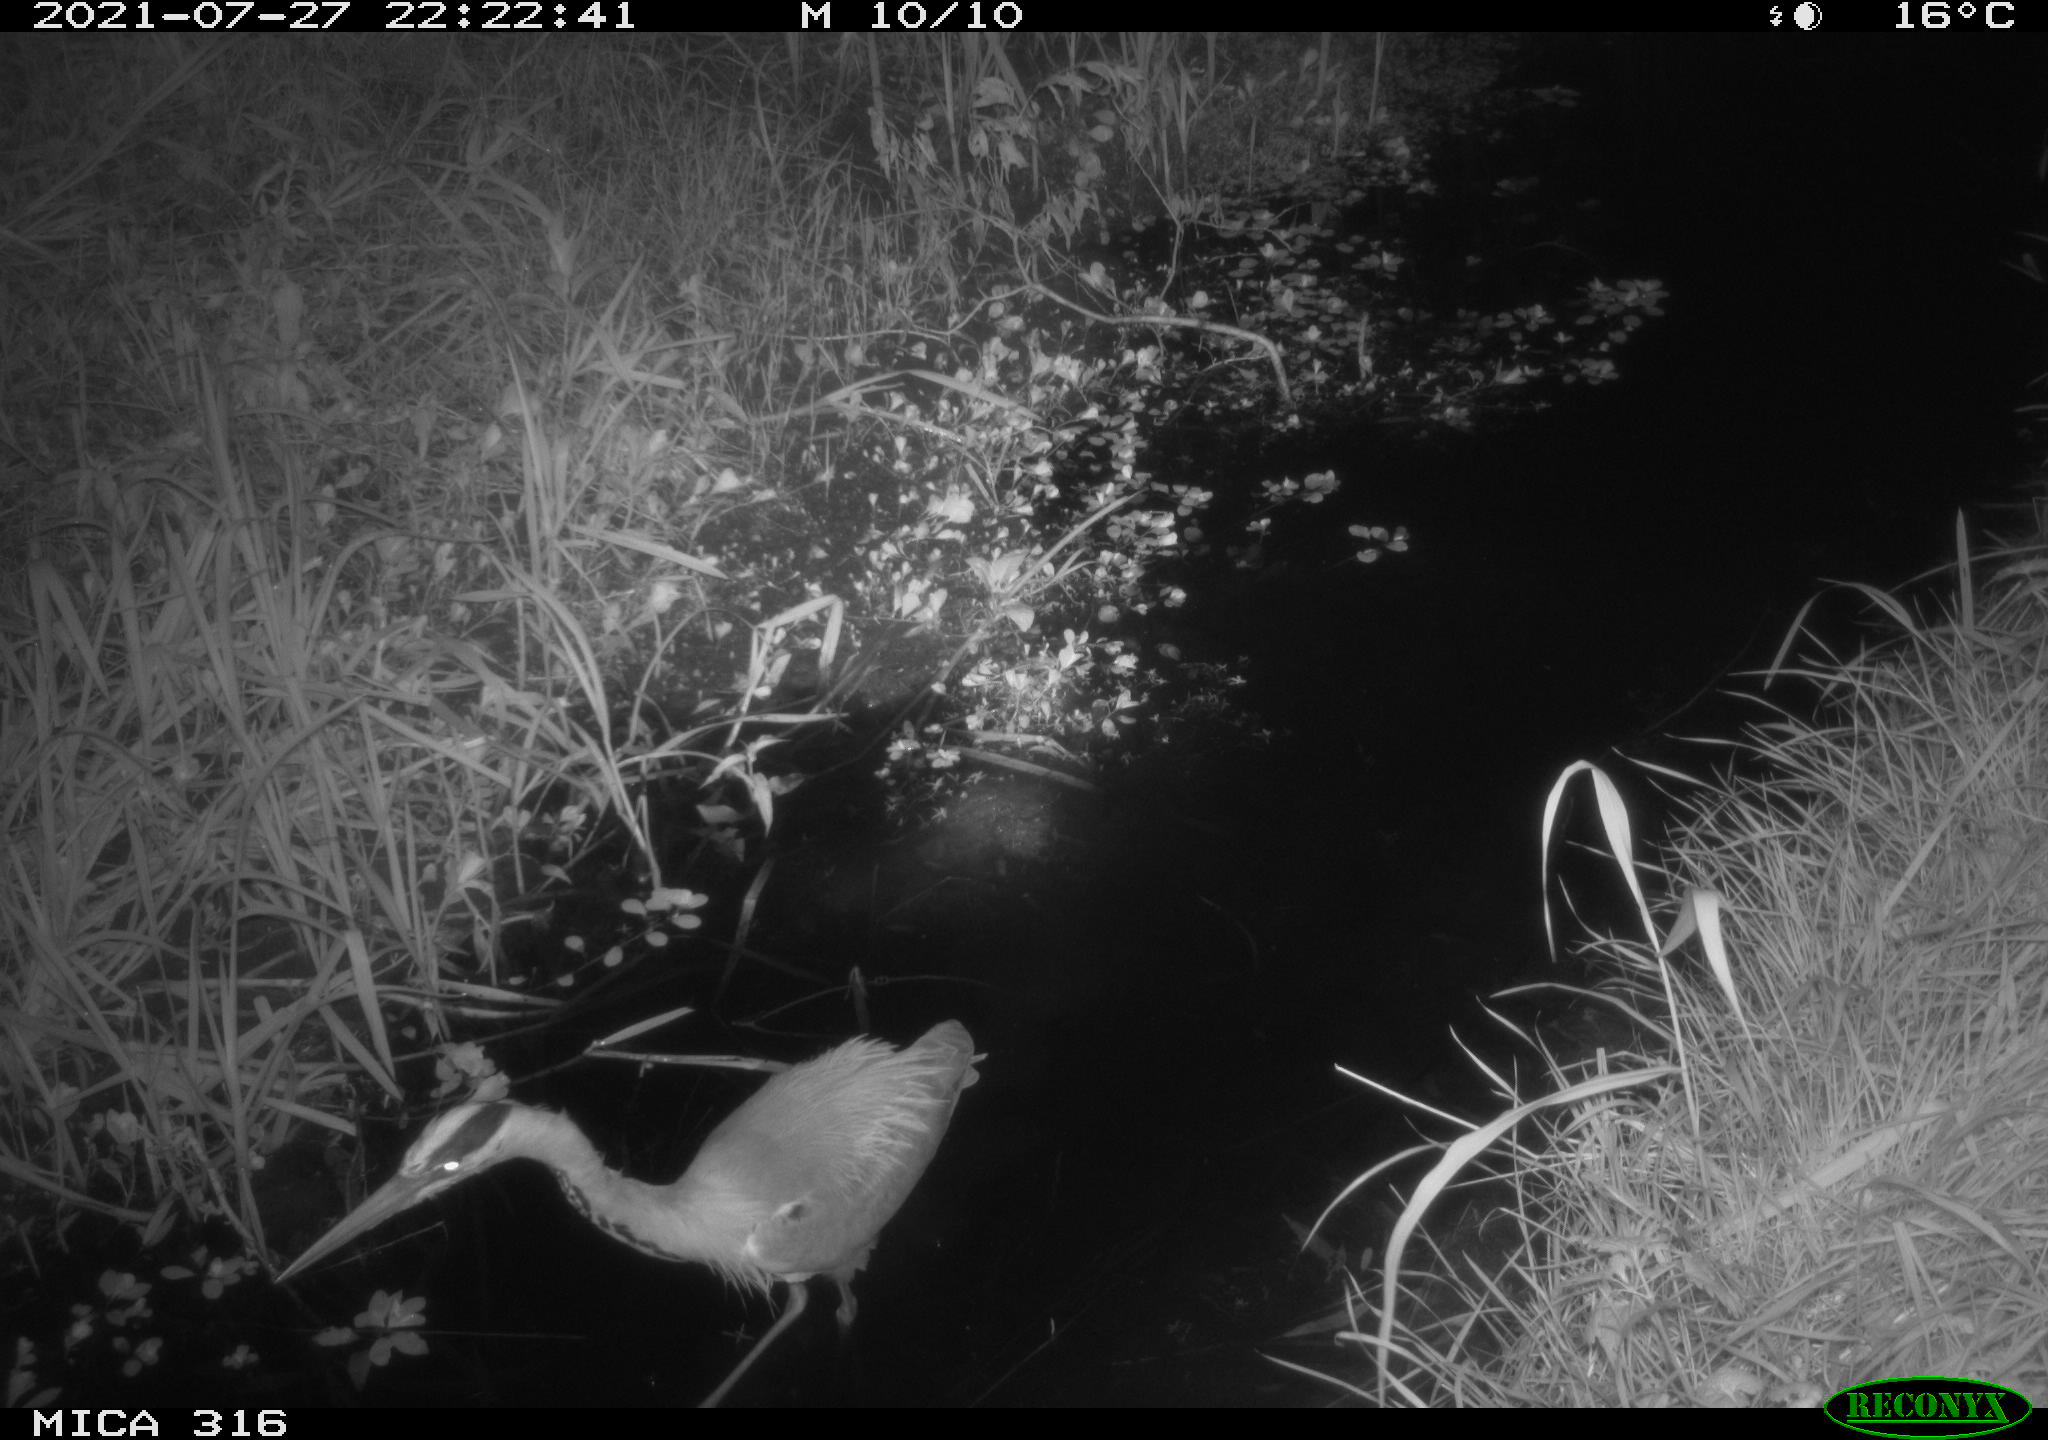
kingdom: Animalia
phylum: Chordata
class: Aves
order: Pelecaniformes
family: Ardeidae
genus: Ardea
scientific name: Ardea
